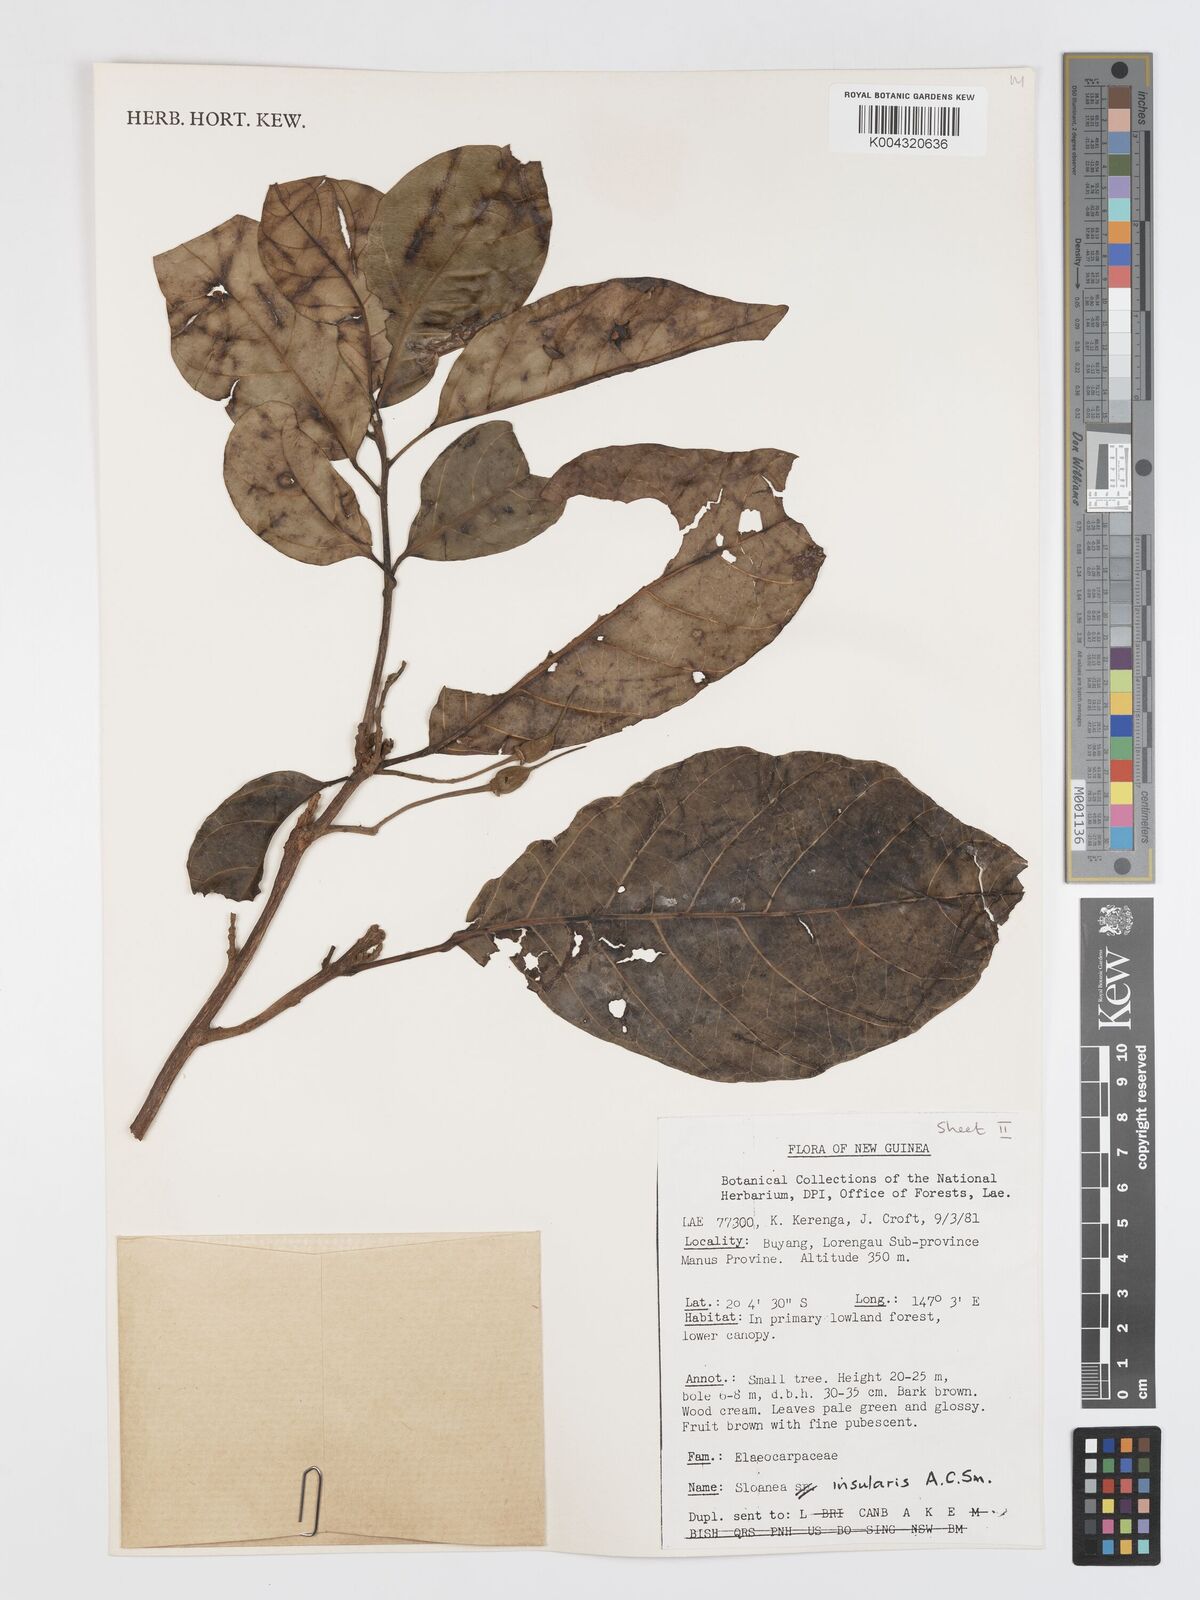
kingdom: Plantae
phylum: Tracheophyta
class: Magnoliopsida
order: Oxalidales
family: Elaeocarpaceae
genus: Sloanea
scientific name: Sloanea insularis
